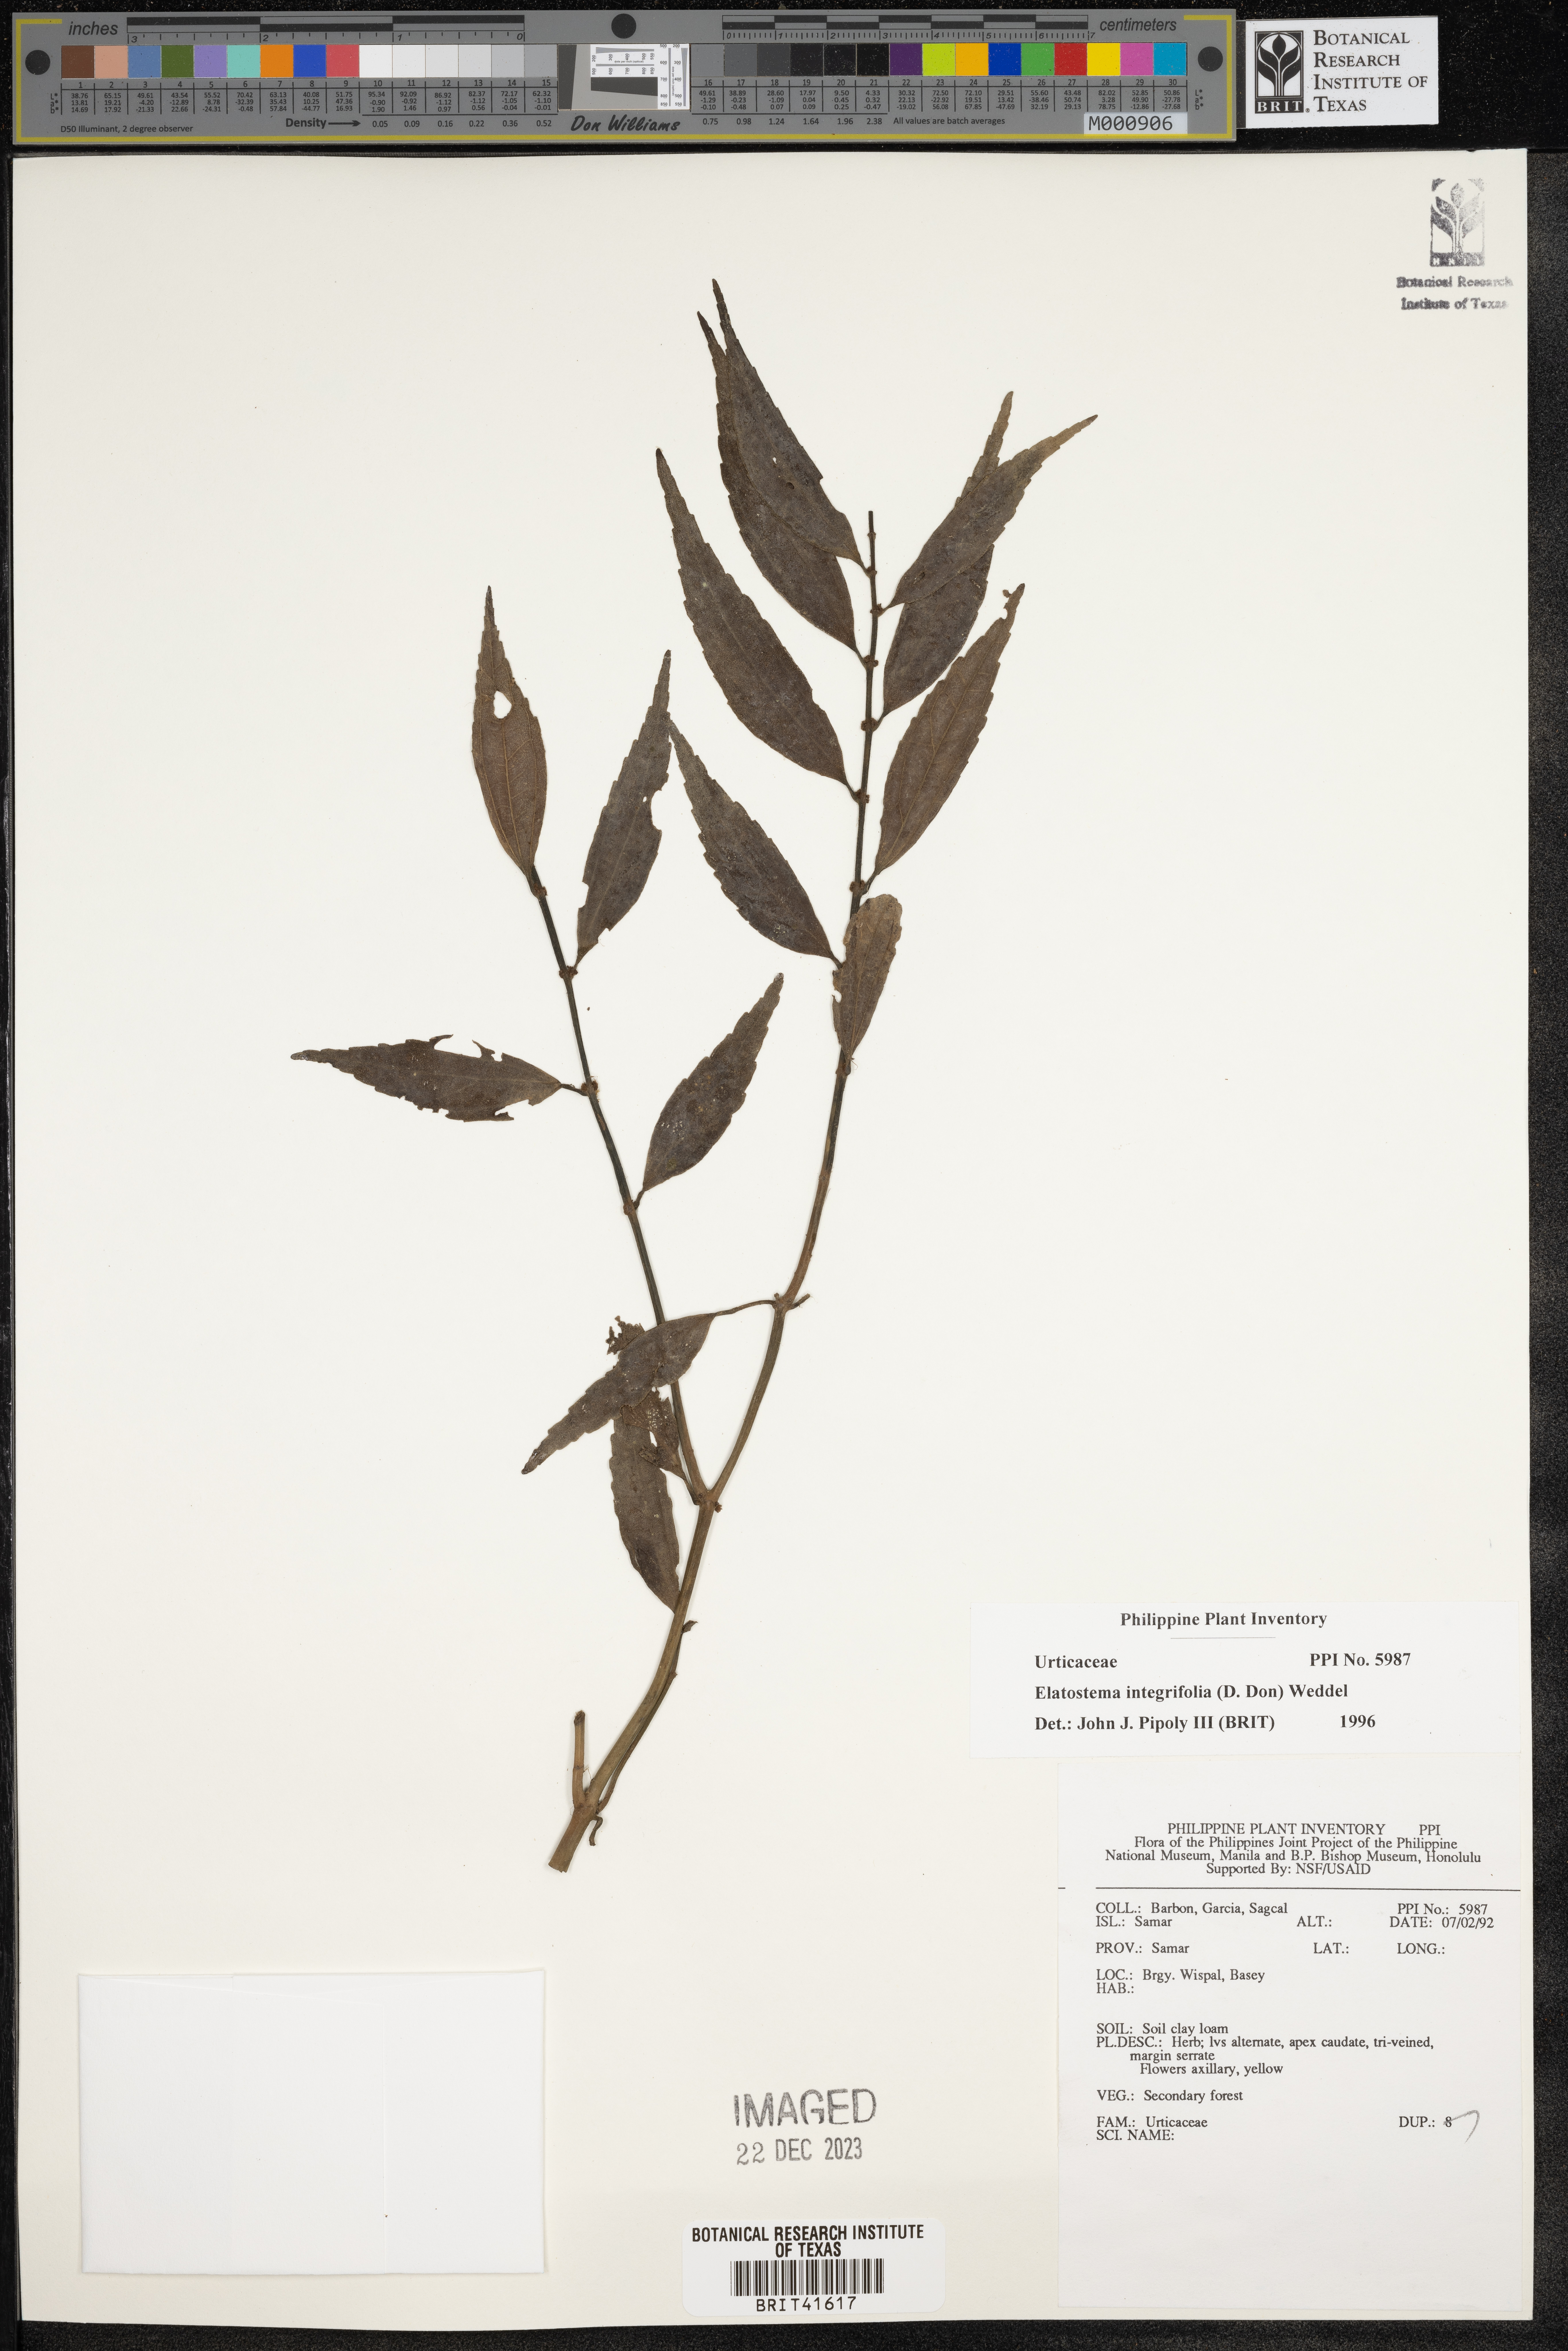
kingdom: Plantae
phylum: Tracheophyta
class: Magnoliopsida
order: Rosales
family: Urticaceae
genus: Elatostema
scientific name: Elatostema integrifolium
